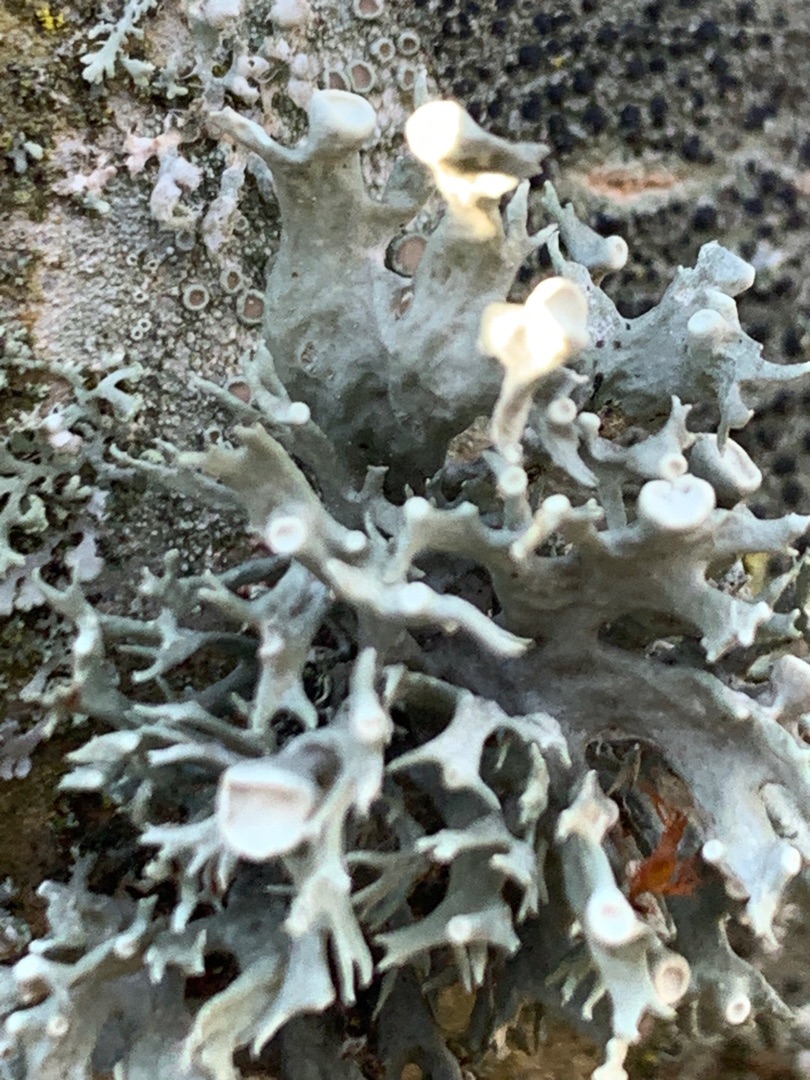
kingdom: Fungi
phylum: Ascomycota
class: Lecanoromycetes
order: Lecanorales
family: Ramalinaceae
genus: Ramalina
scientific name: Ramalina fastigiata
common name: Tue-grenlav
